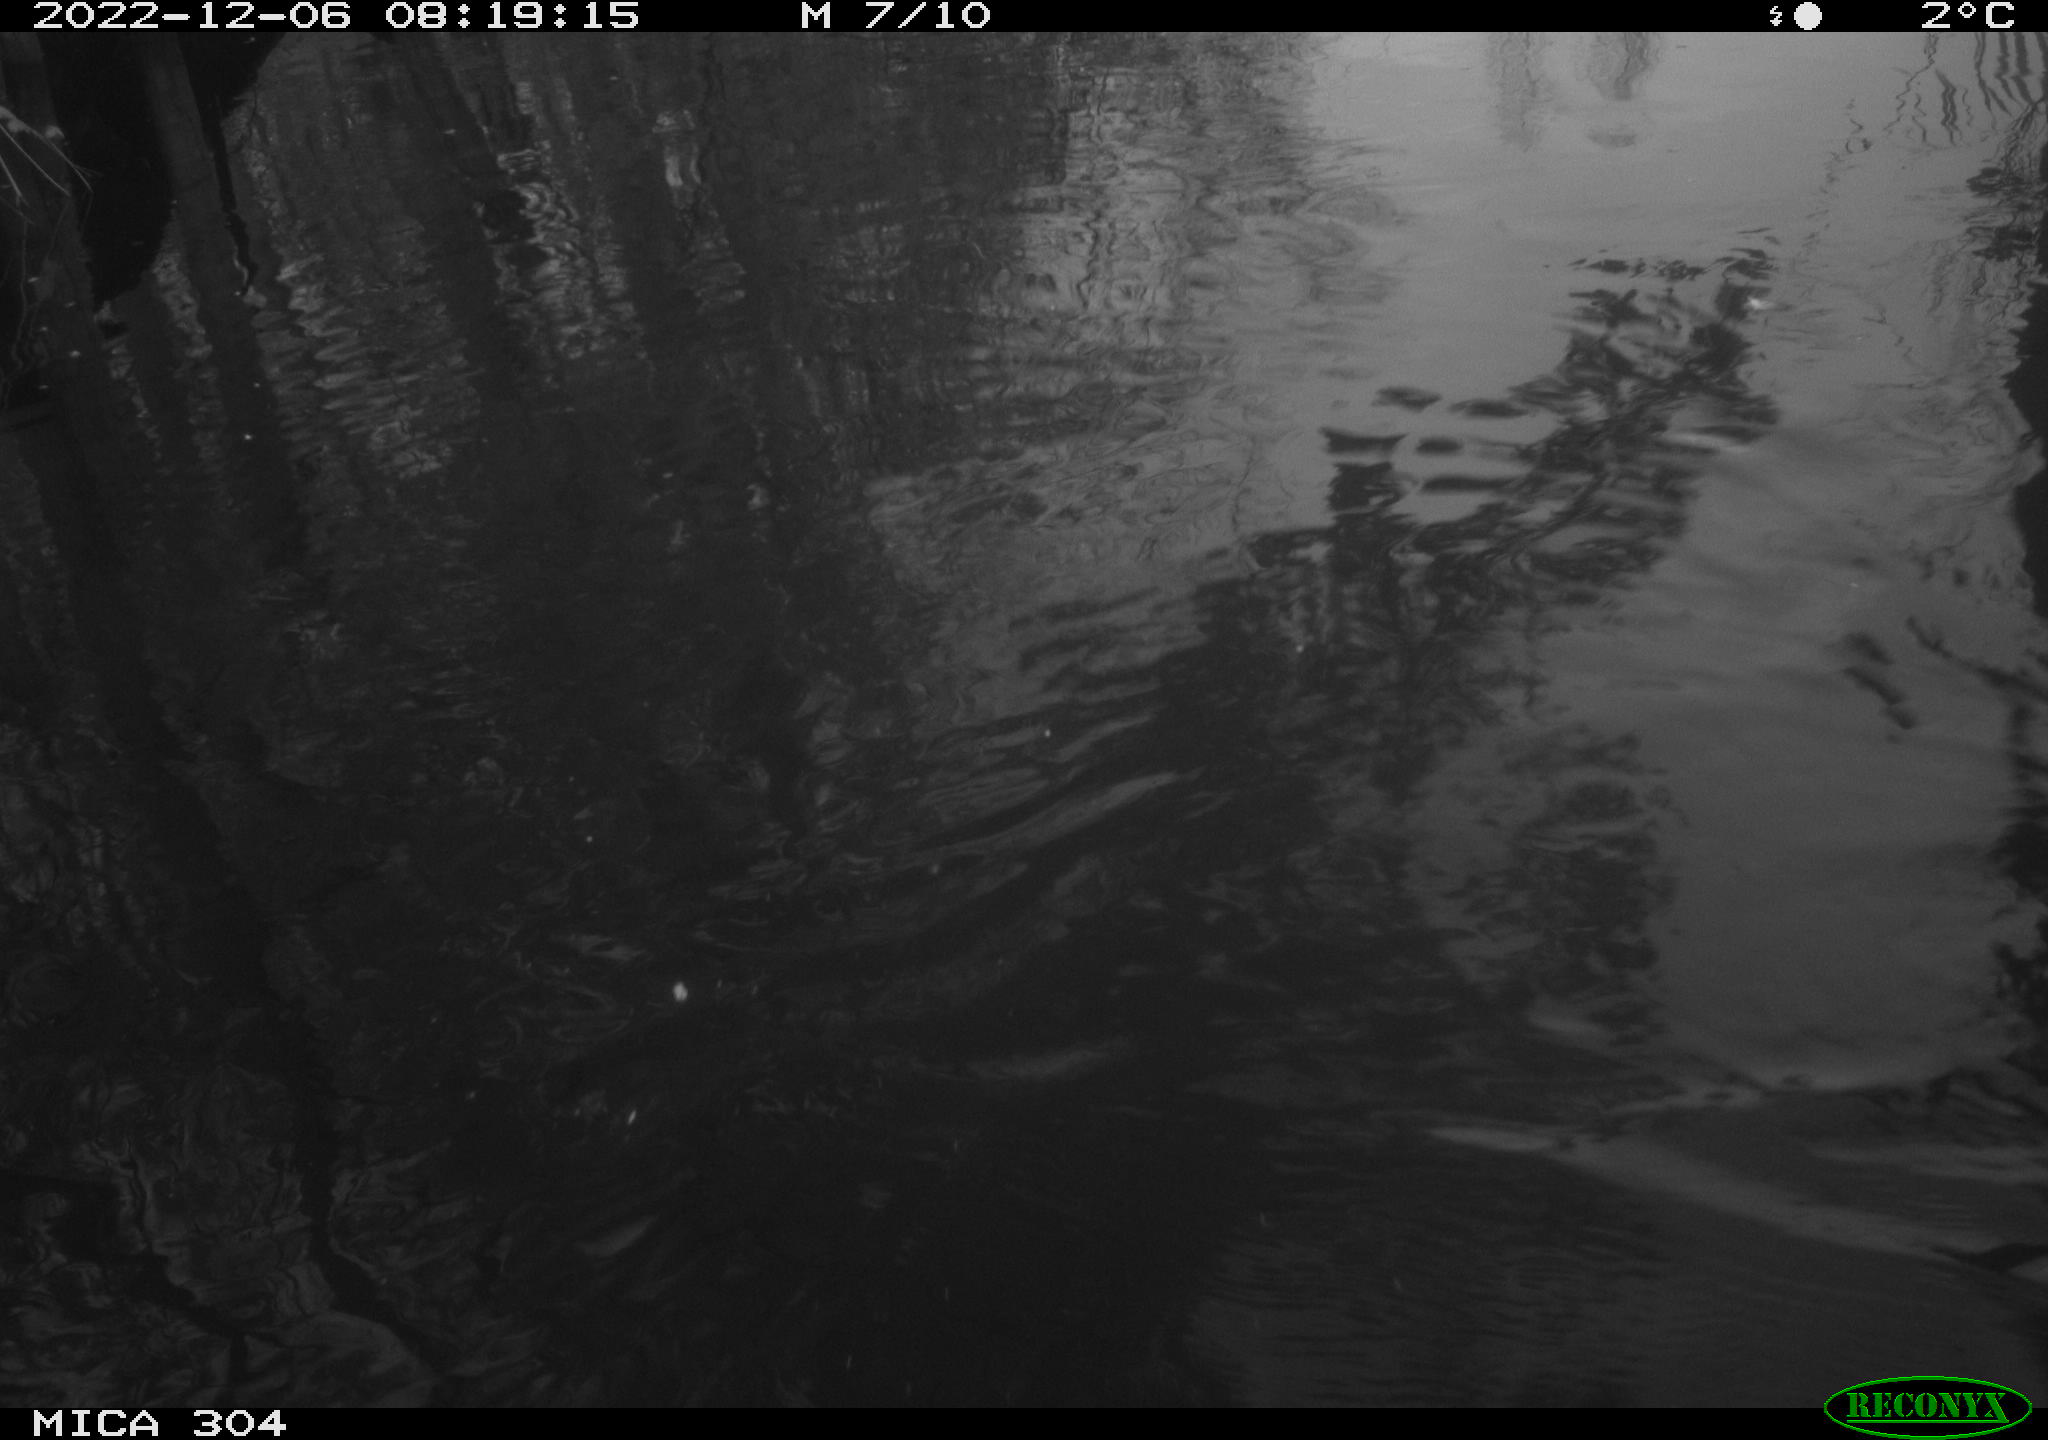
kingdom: Animalia
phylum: Chordata
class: Aves
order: Gruiformes
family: Rallidae
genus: Gallinula
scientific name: Gallinula chloropus
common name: Common moorhen
